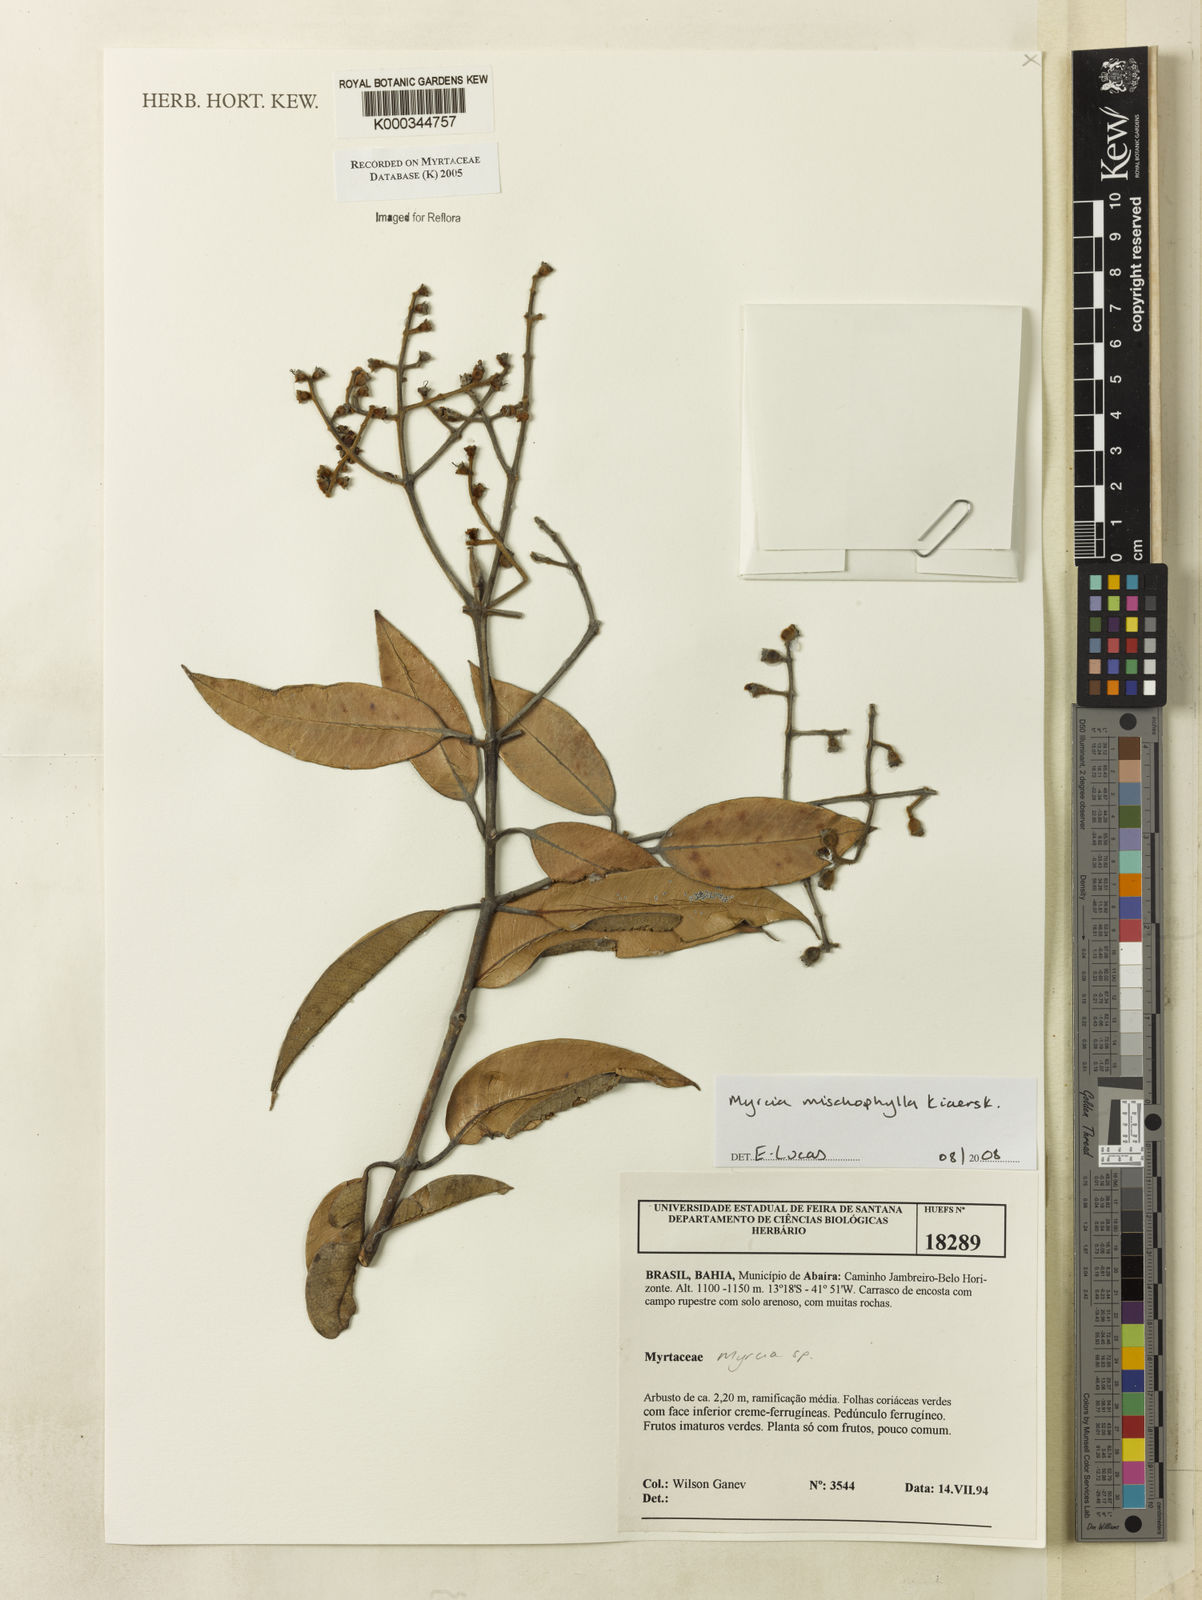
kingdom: Plantae
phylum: Tracheophyta
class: Magnoliopsida
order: Myrtales
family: Myrtaceae
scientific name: Myrtaceae
